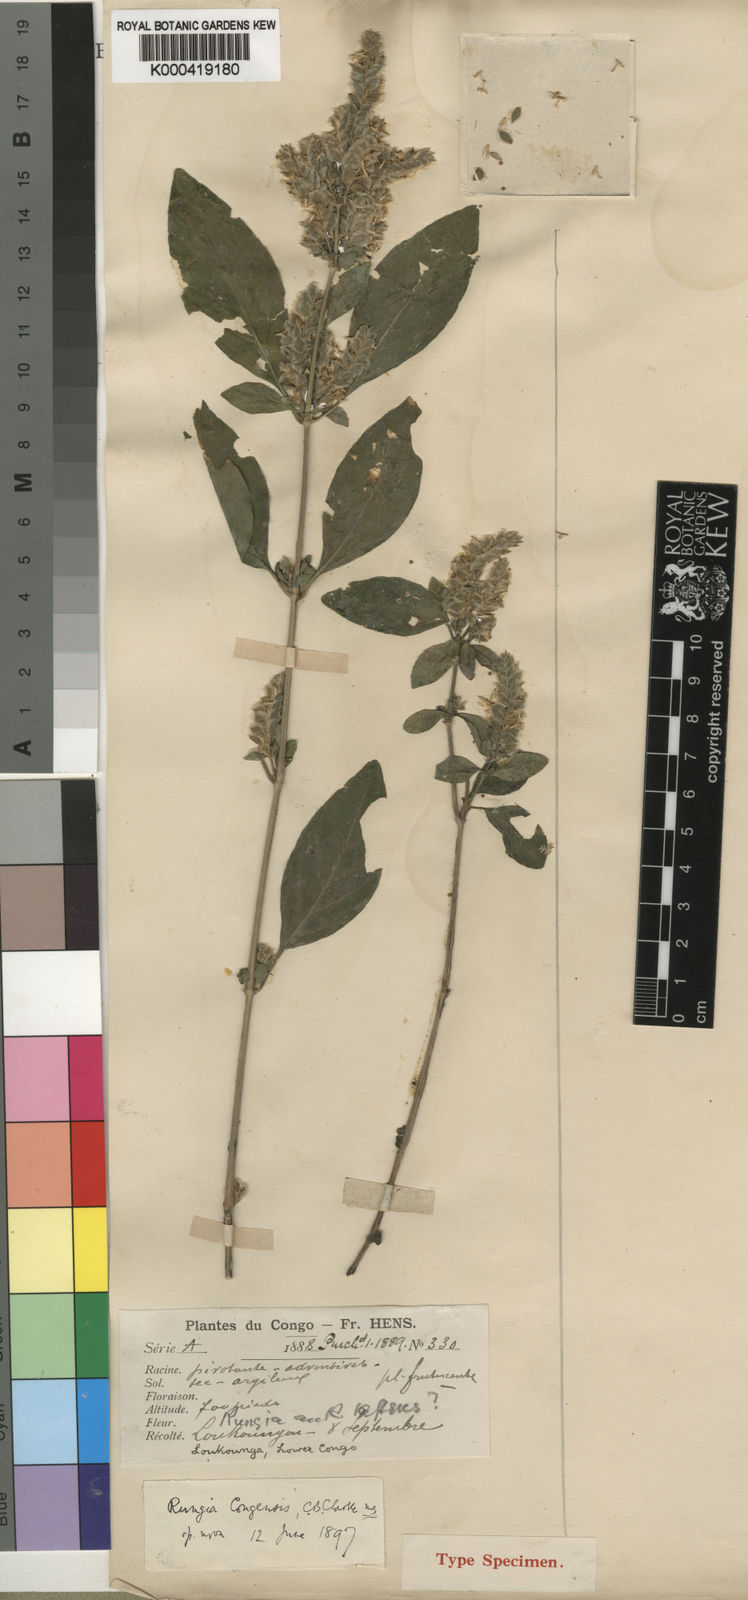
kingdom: Plantae
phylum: Tracheophyta
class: Magnoliopsida
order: Lamiales
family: Acanthaceae
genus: Justicia
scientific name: Justicia
